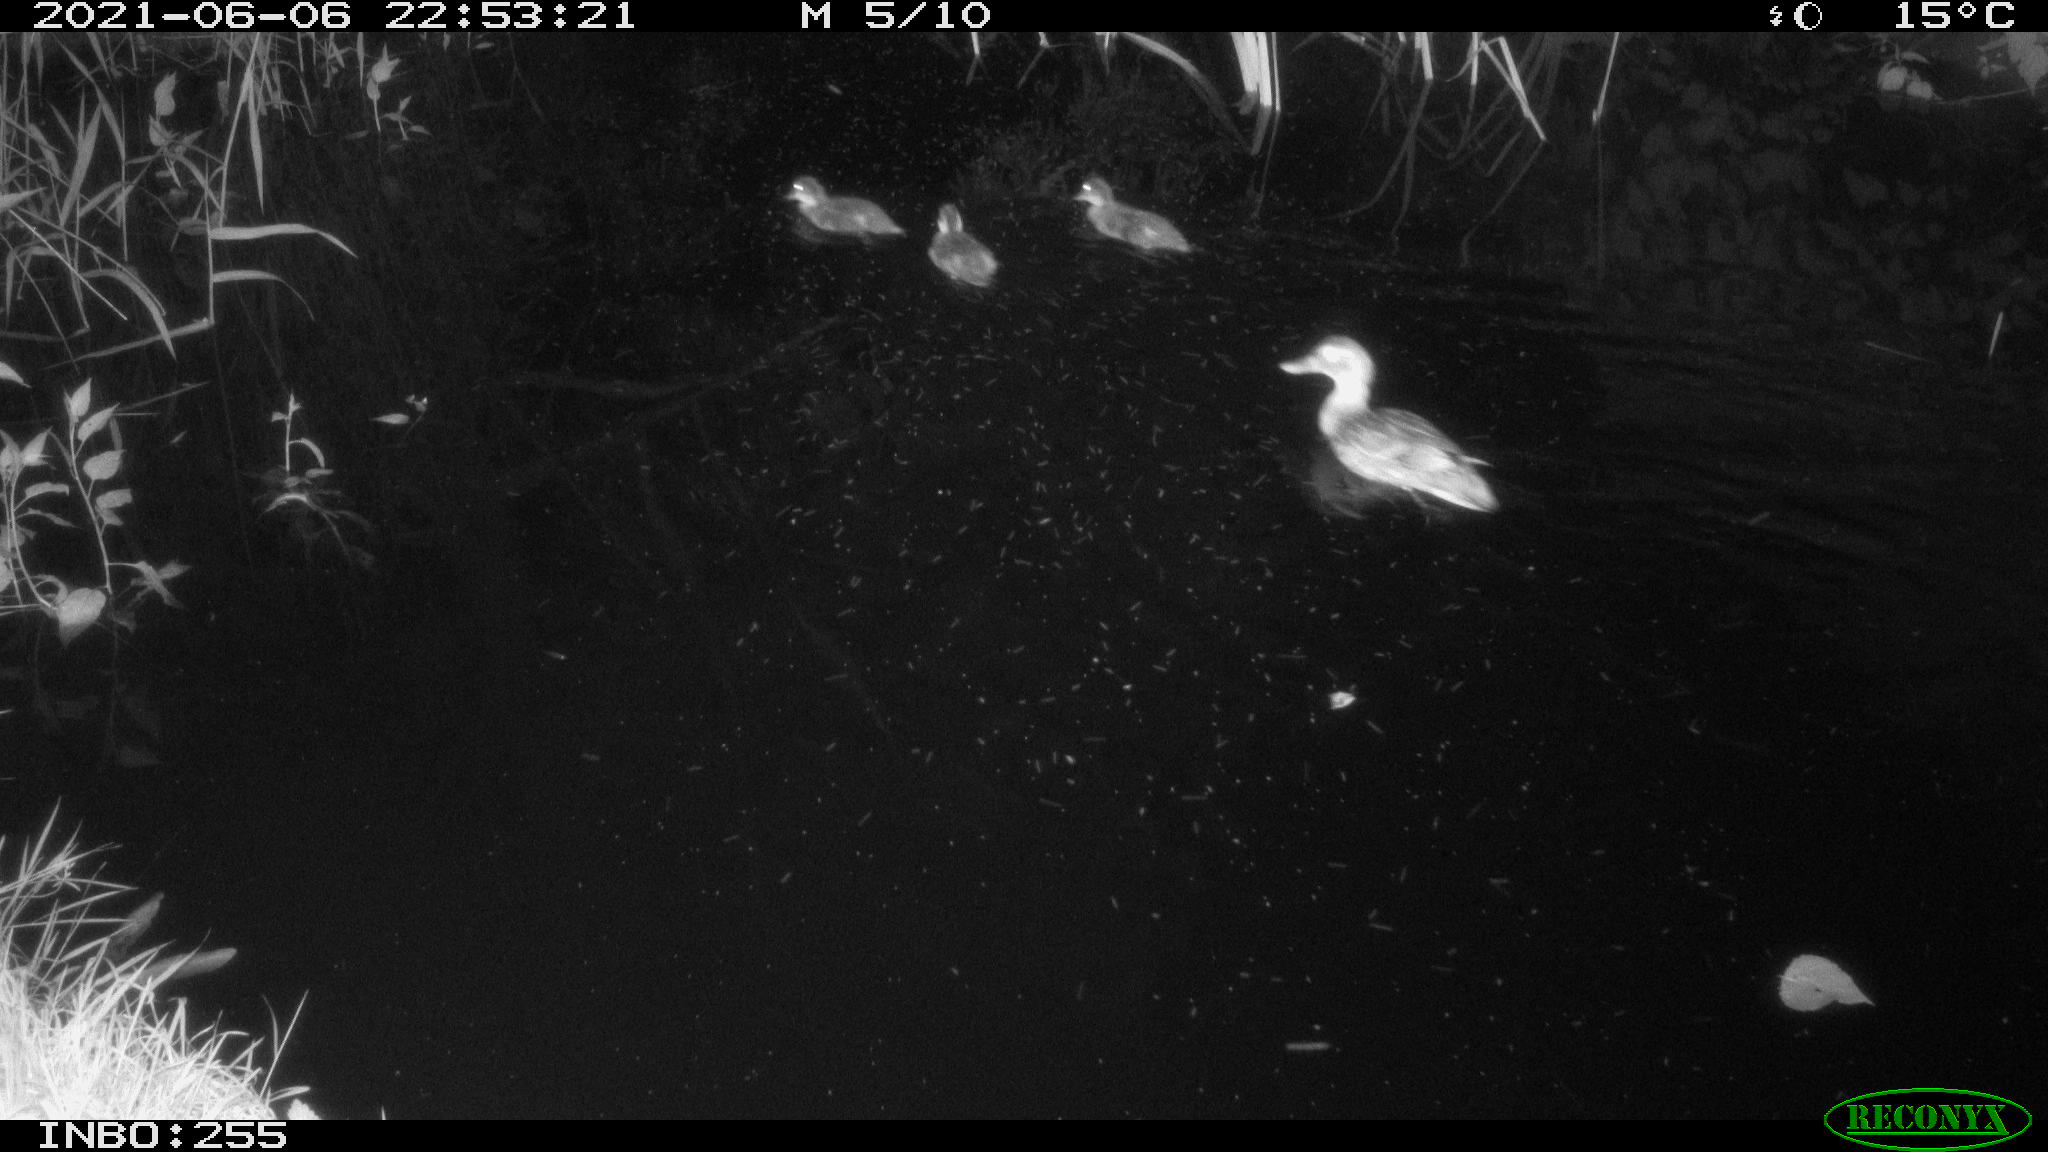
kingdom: Animalia
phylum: Chordata
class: Aves
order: Anseriformes
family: Anatidae
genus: Anas
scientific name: Anas
